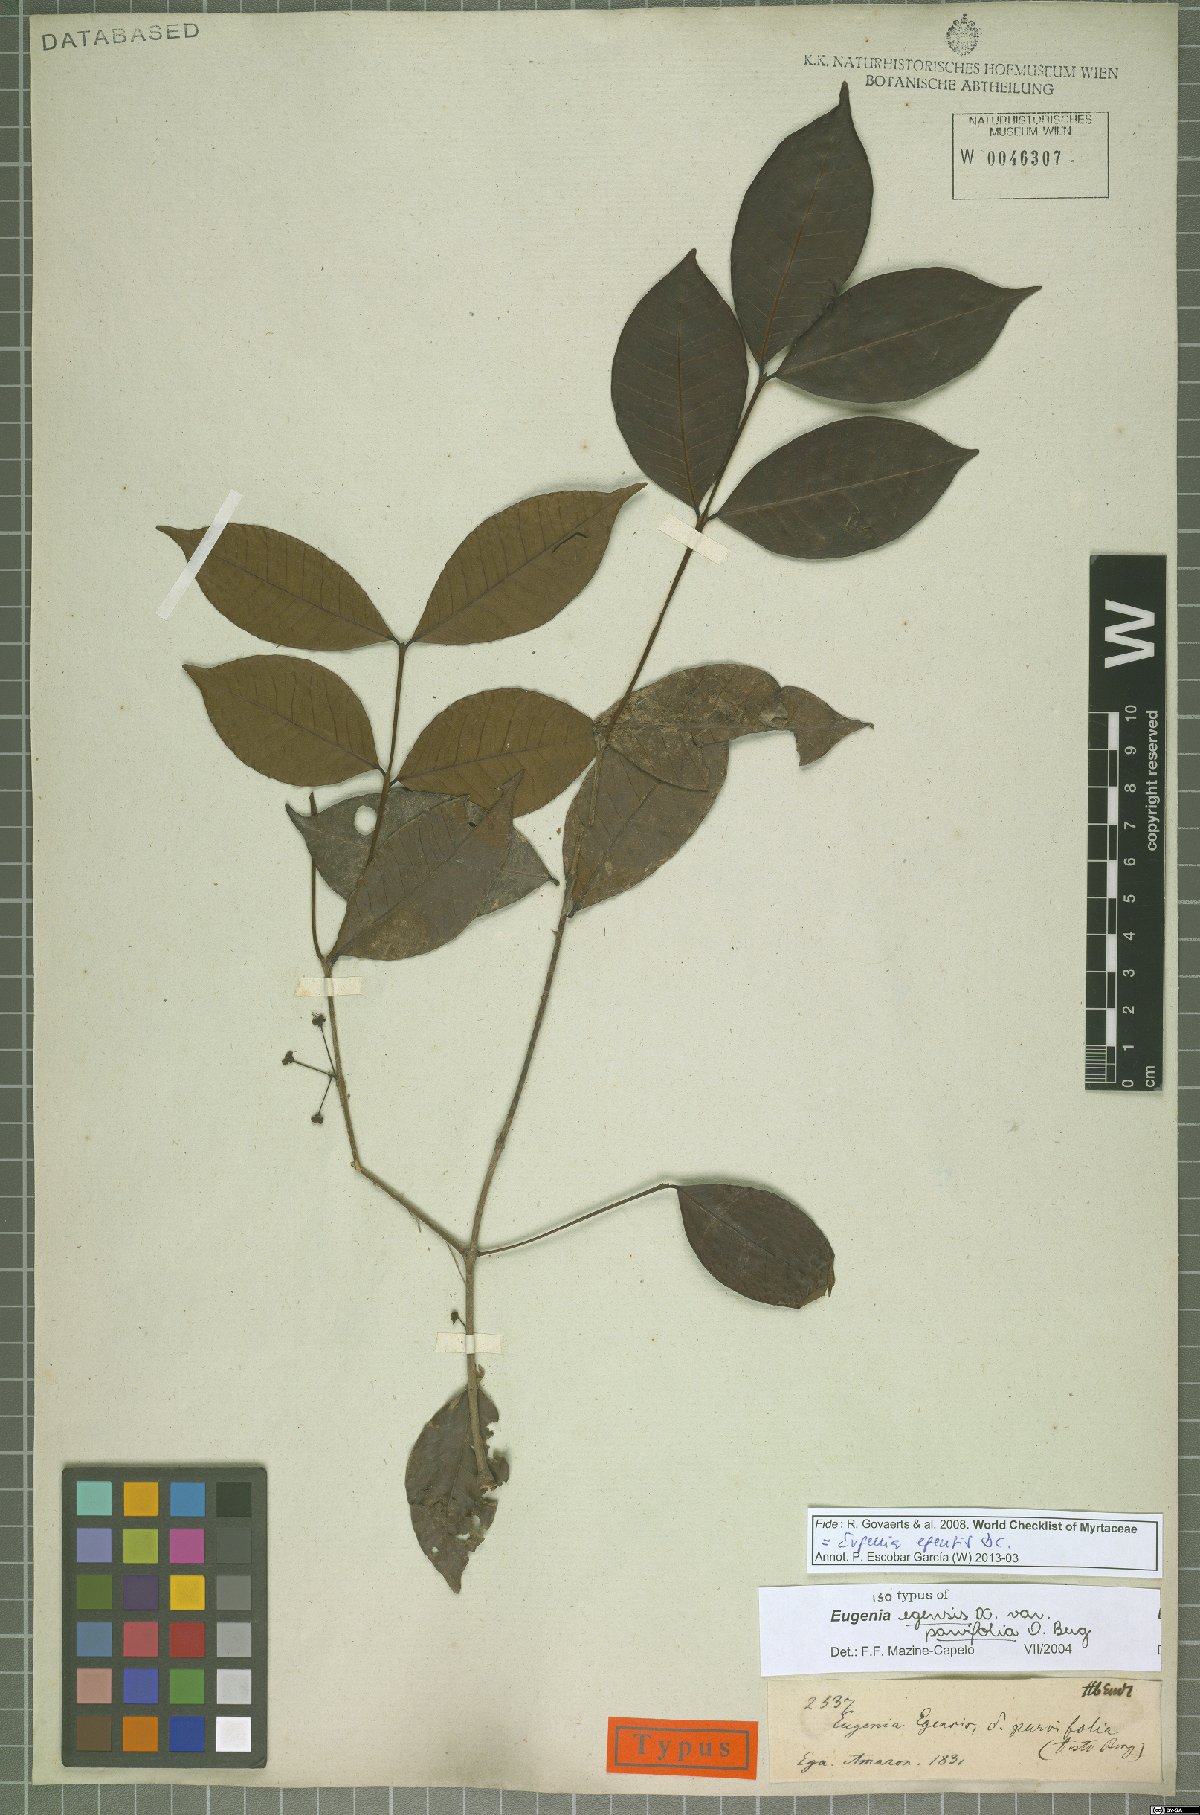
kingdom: Plantae
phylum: Tracheophyta
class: Magnoliopsida
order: Myrtales
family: Myrtaceae
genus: Eugenia
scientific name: Eugenia egensis
